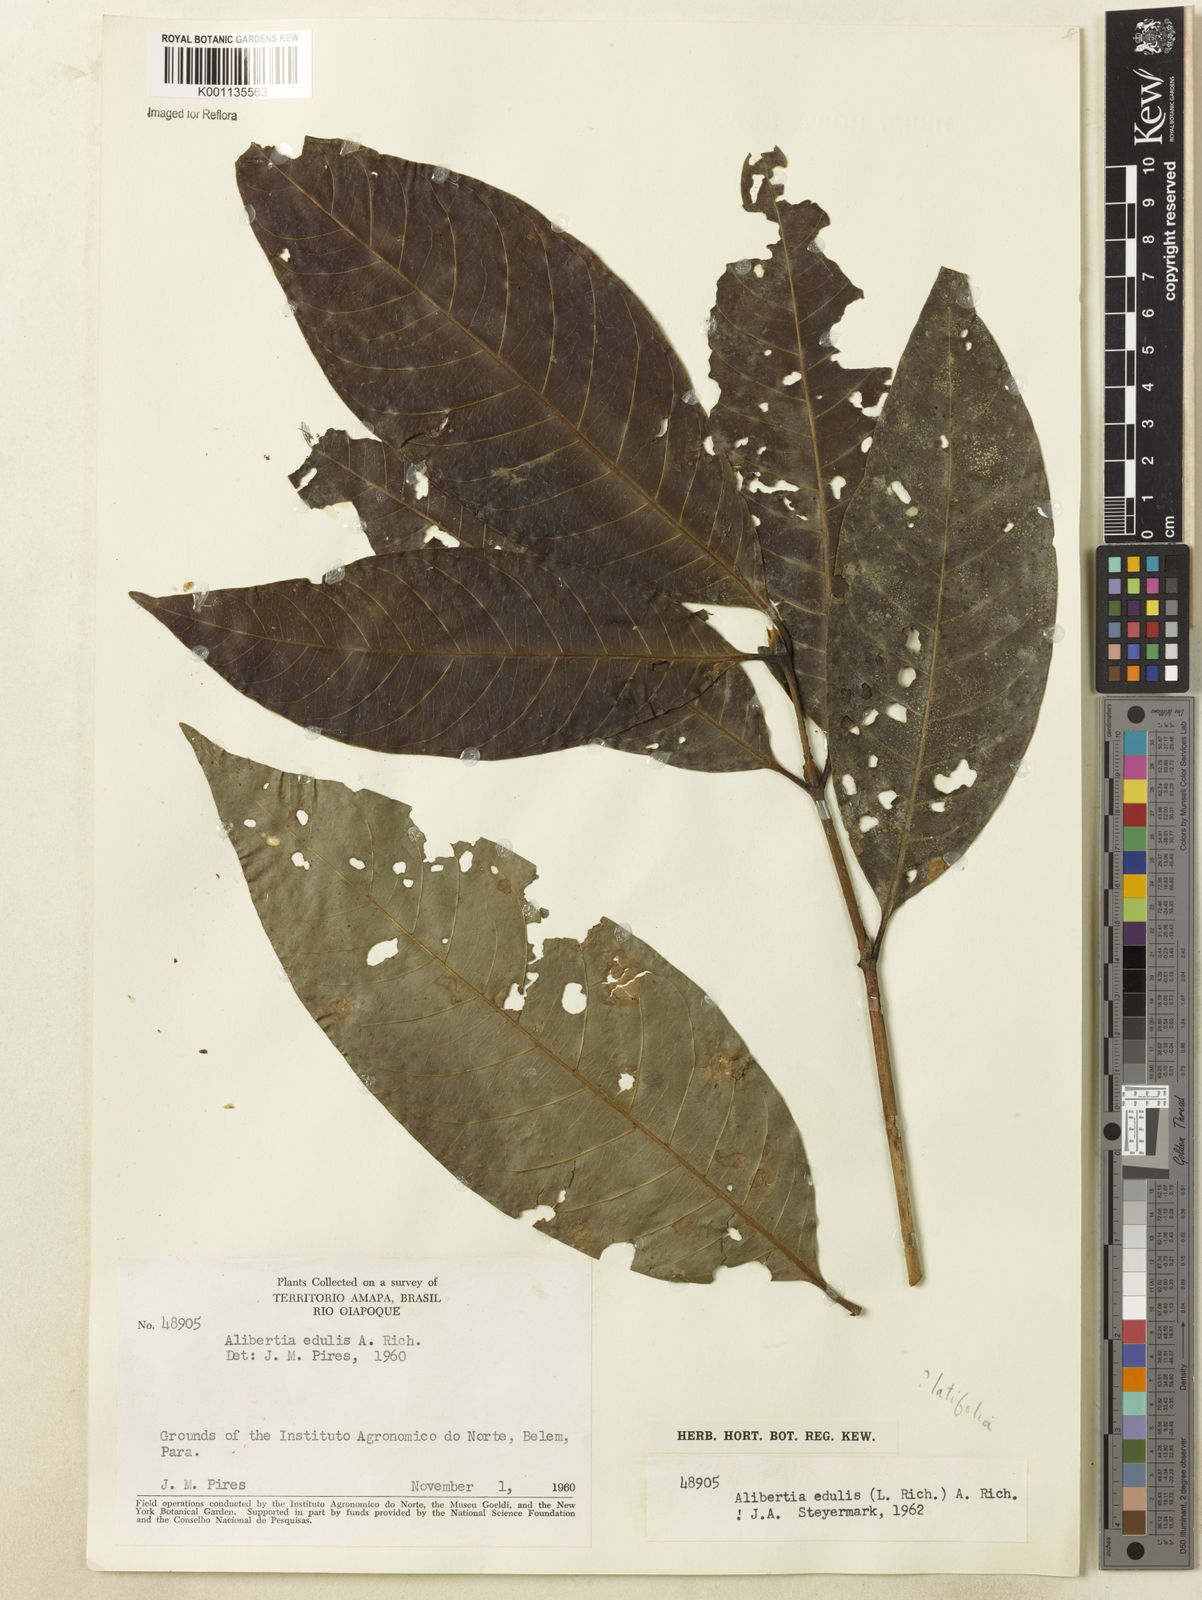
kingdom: Plantae
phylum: Tracheophyta
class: Magnoliopsida
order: Gentianales
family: Rubiaceae
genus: Agouticarpa
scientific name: Agouticarpa curviflora
